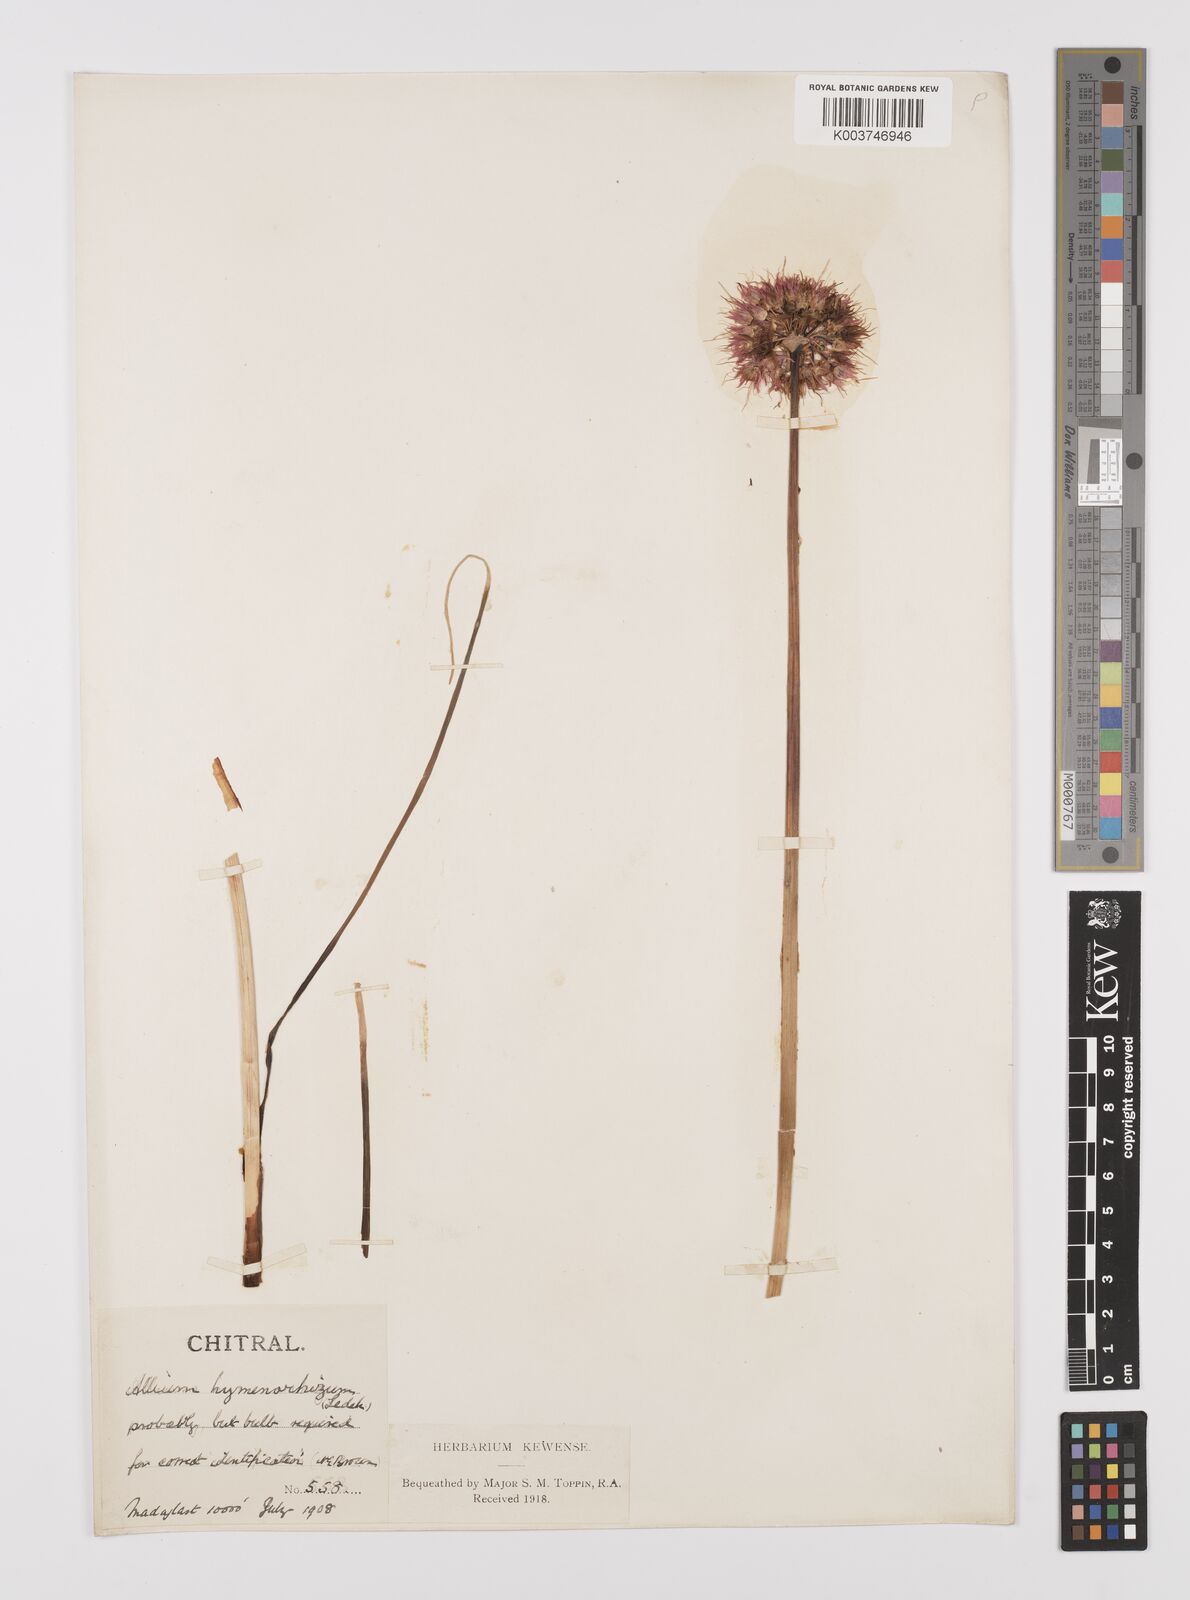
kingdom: Plantae
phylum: Tracheophyta
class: Liliopsida
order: Asparagales
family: Amaryllidaceae
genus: Allium
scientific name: Allium
